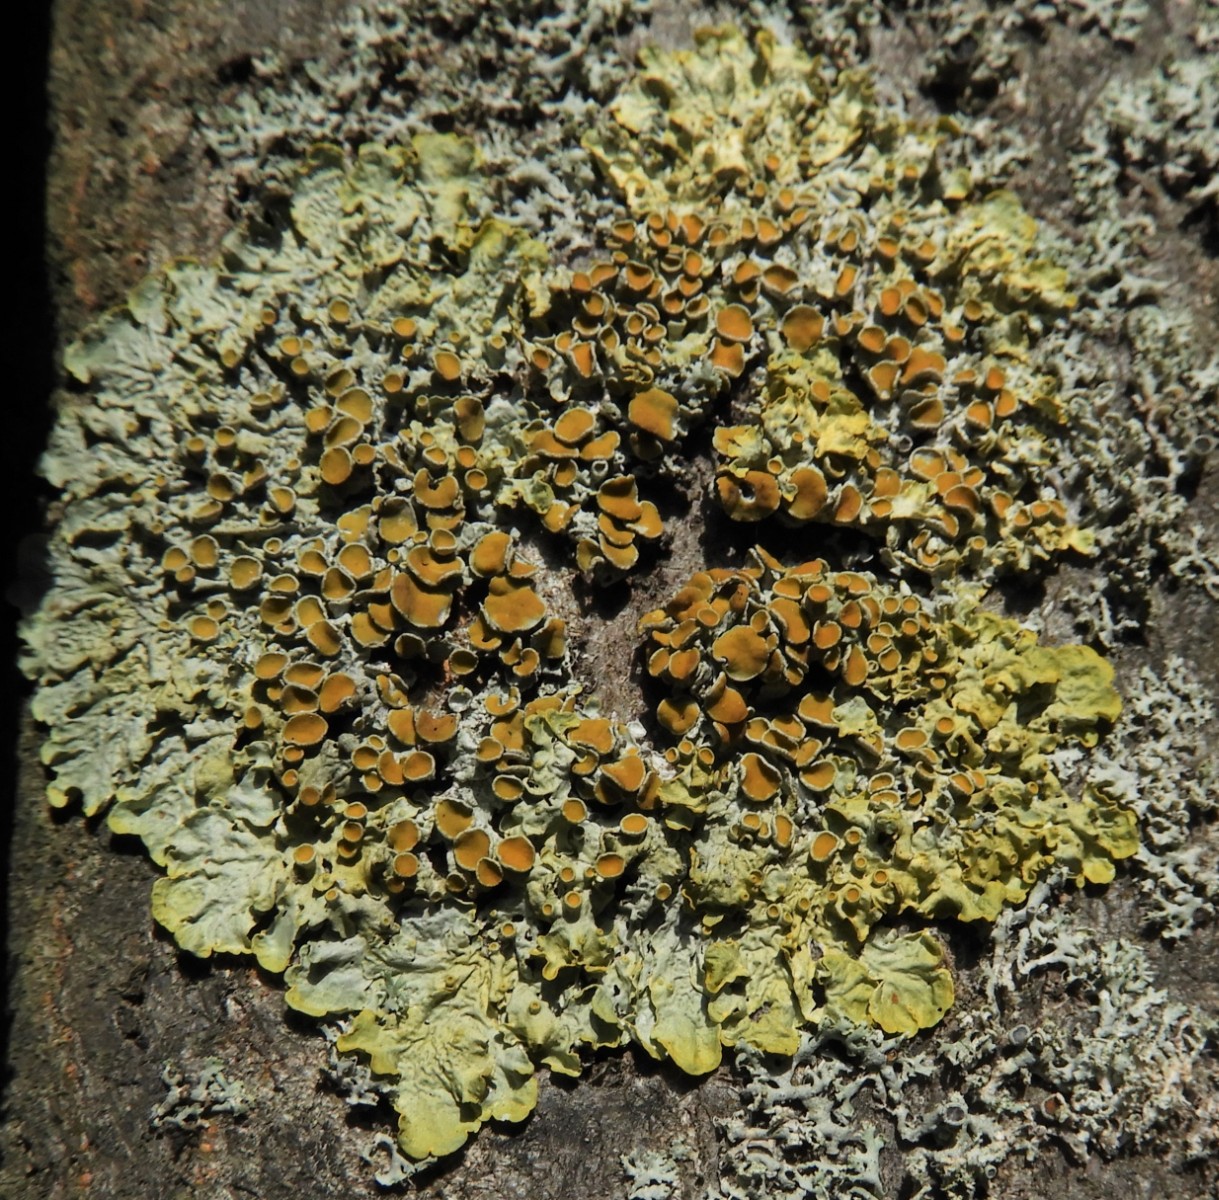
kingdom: Fungi
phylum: Ascomycota
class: Lecanoromycetes
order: Teloschistales
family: Teloschistaceae
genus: Xanthoria
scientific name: Xanthoria parietina
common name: almindelig væggelav
